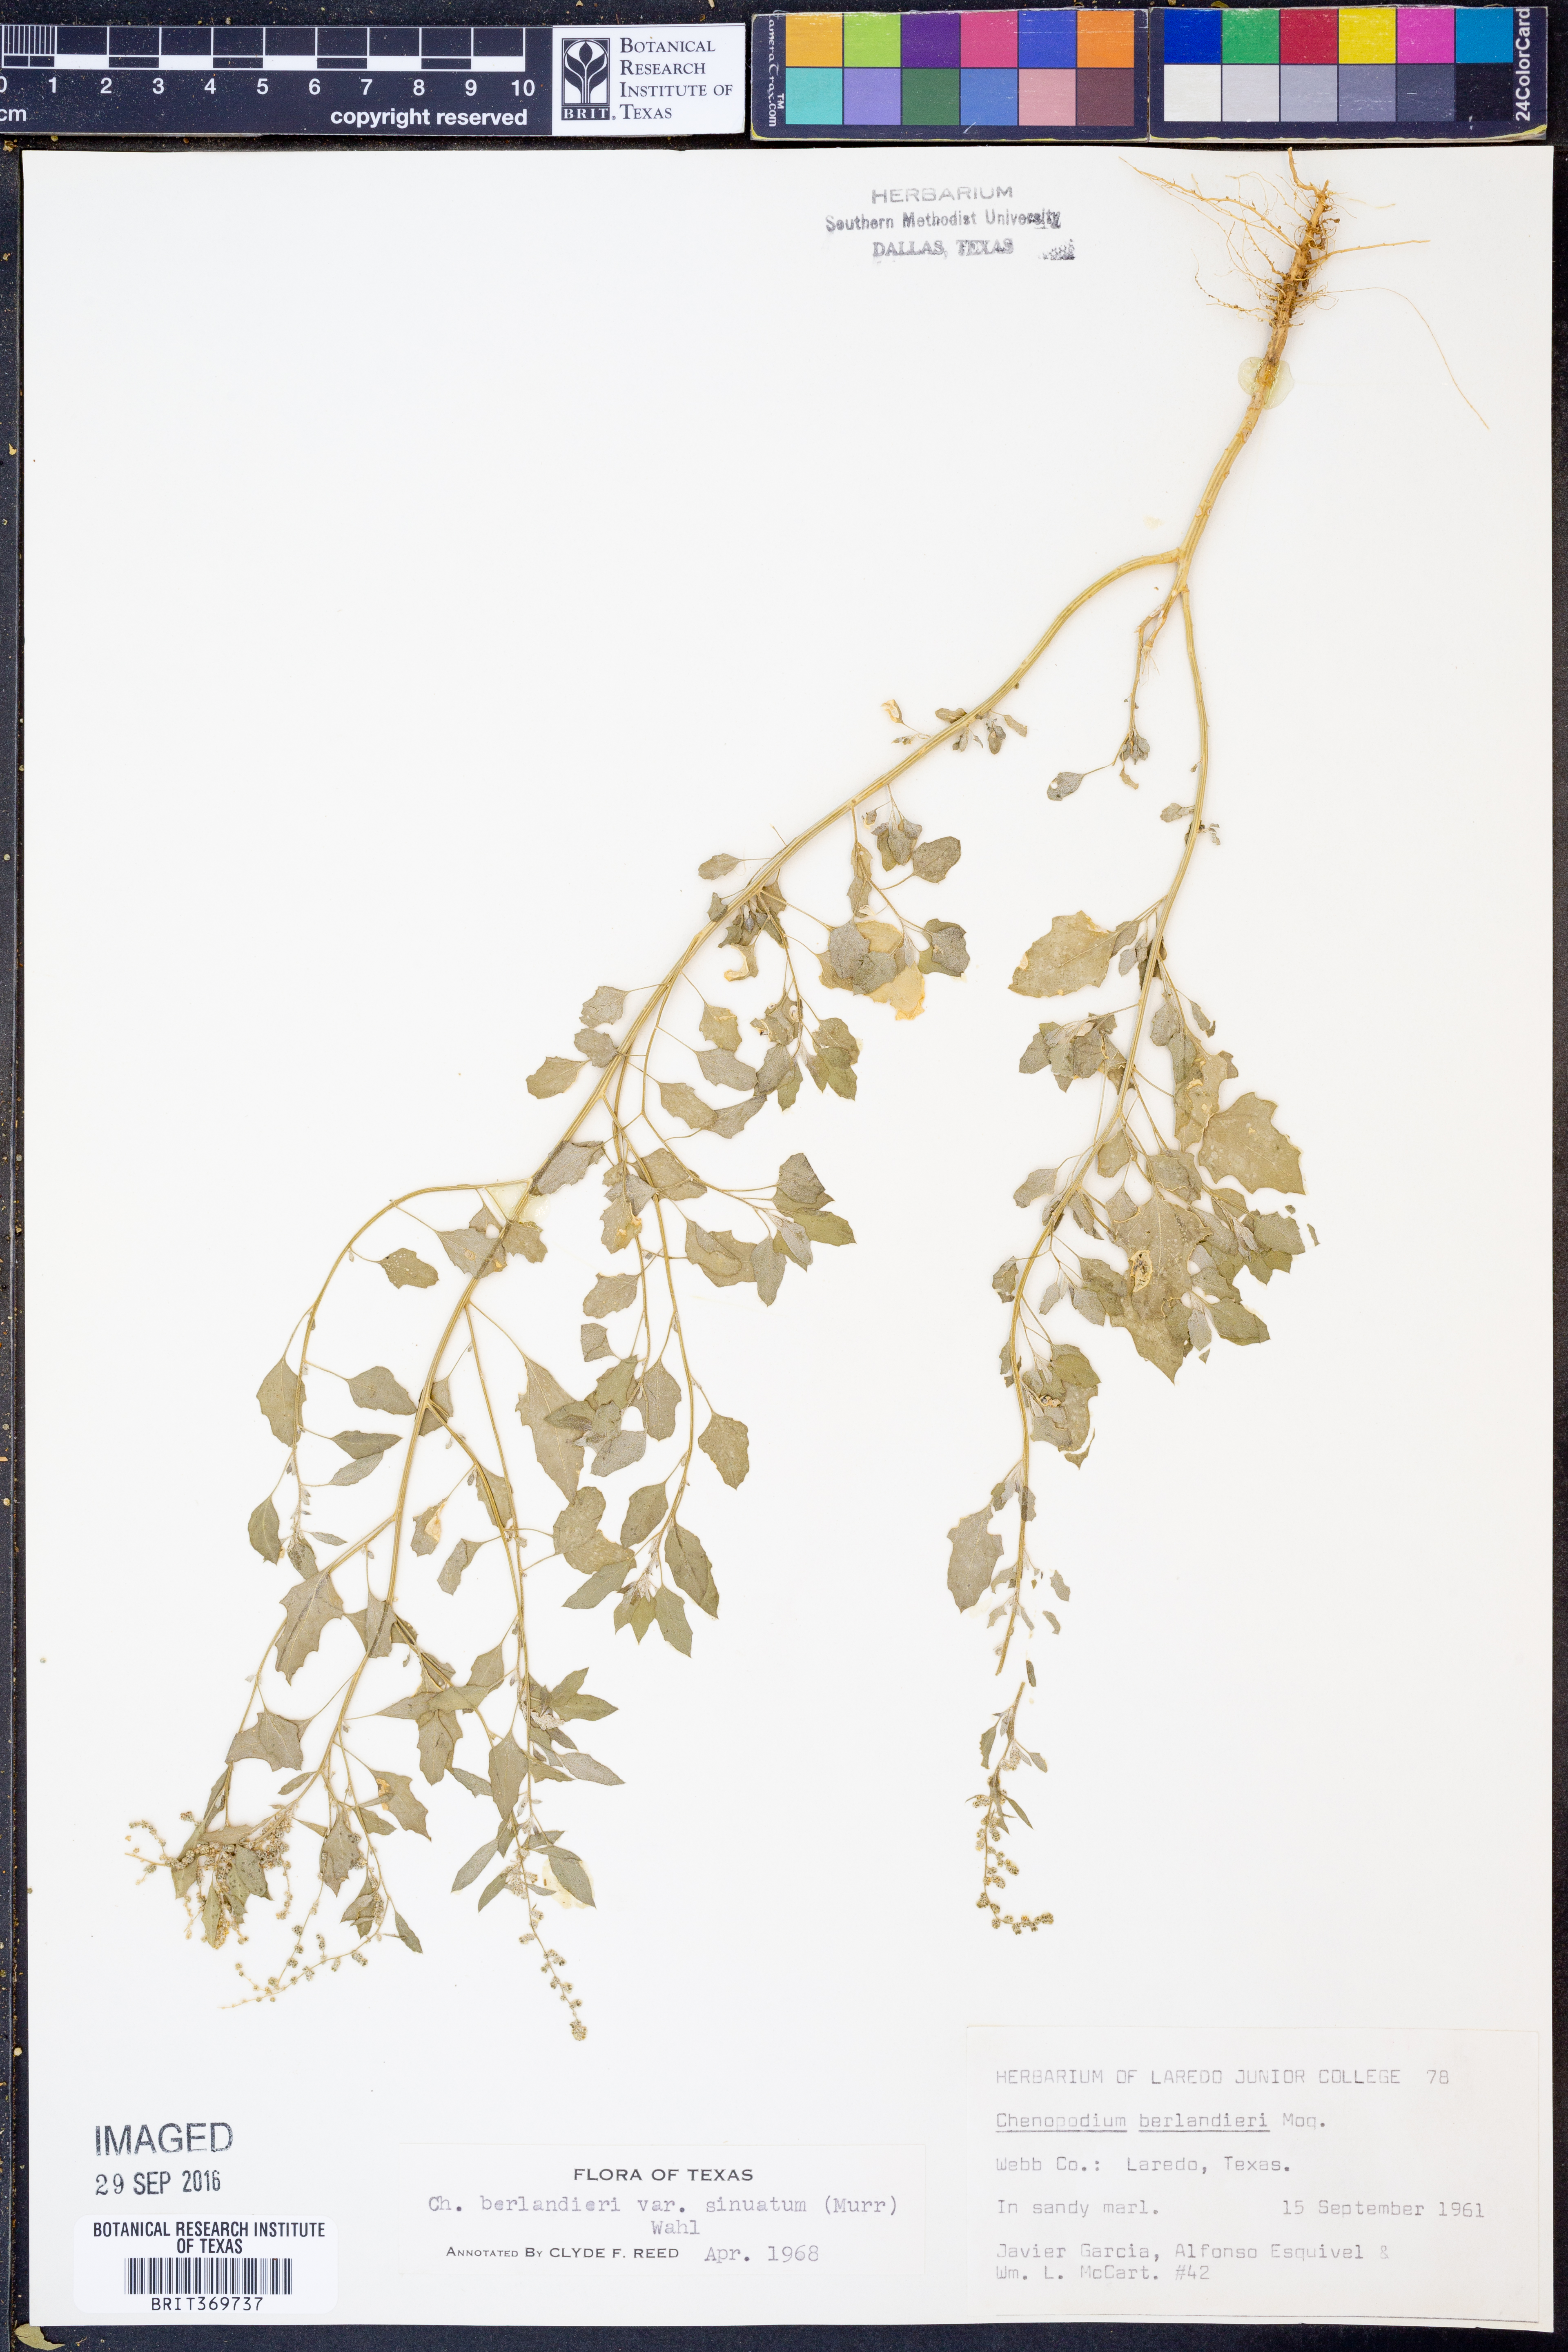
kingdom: Plantae
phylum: Tracheophyta
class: Magnoliopsida
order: Caryophyllales
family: Amaranthaceae
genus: Chenopodium
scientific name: Chenopodium berlandieri
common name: Pit-seed goosefoot
